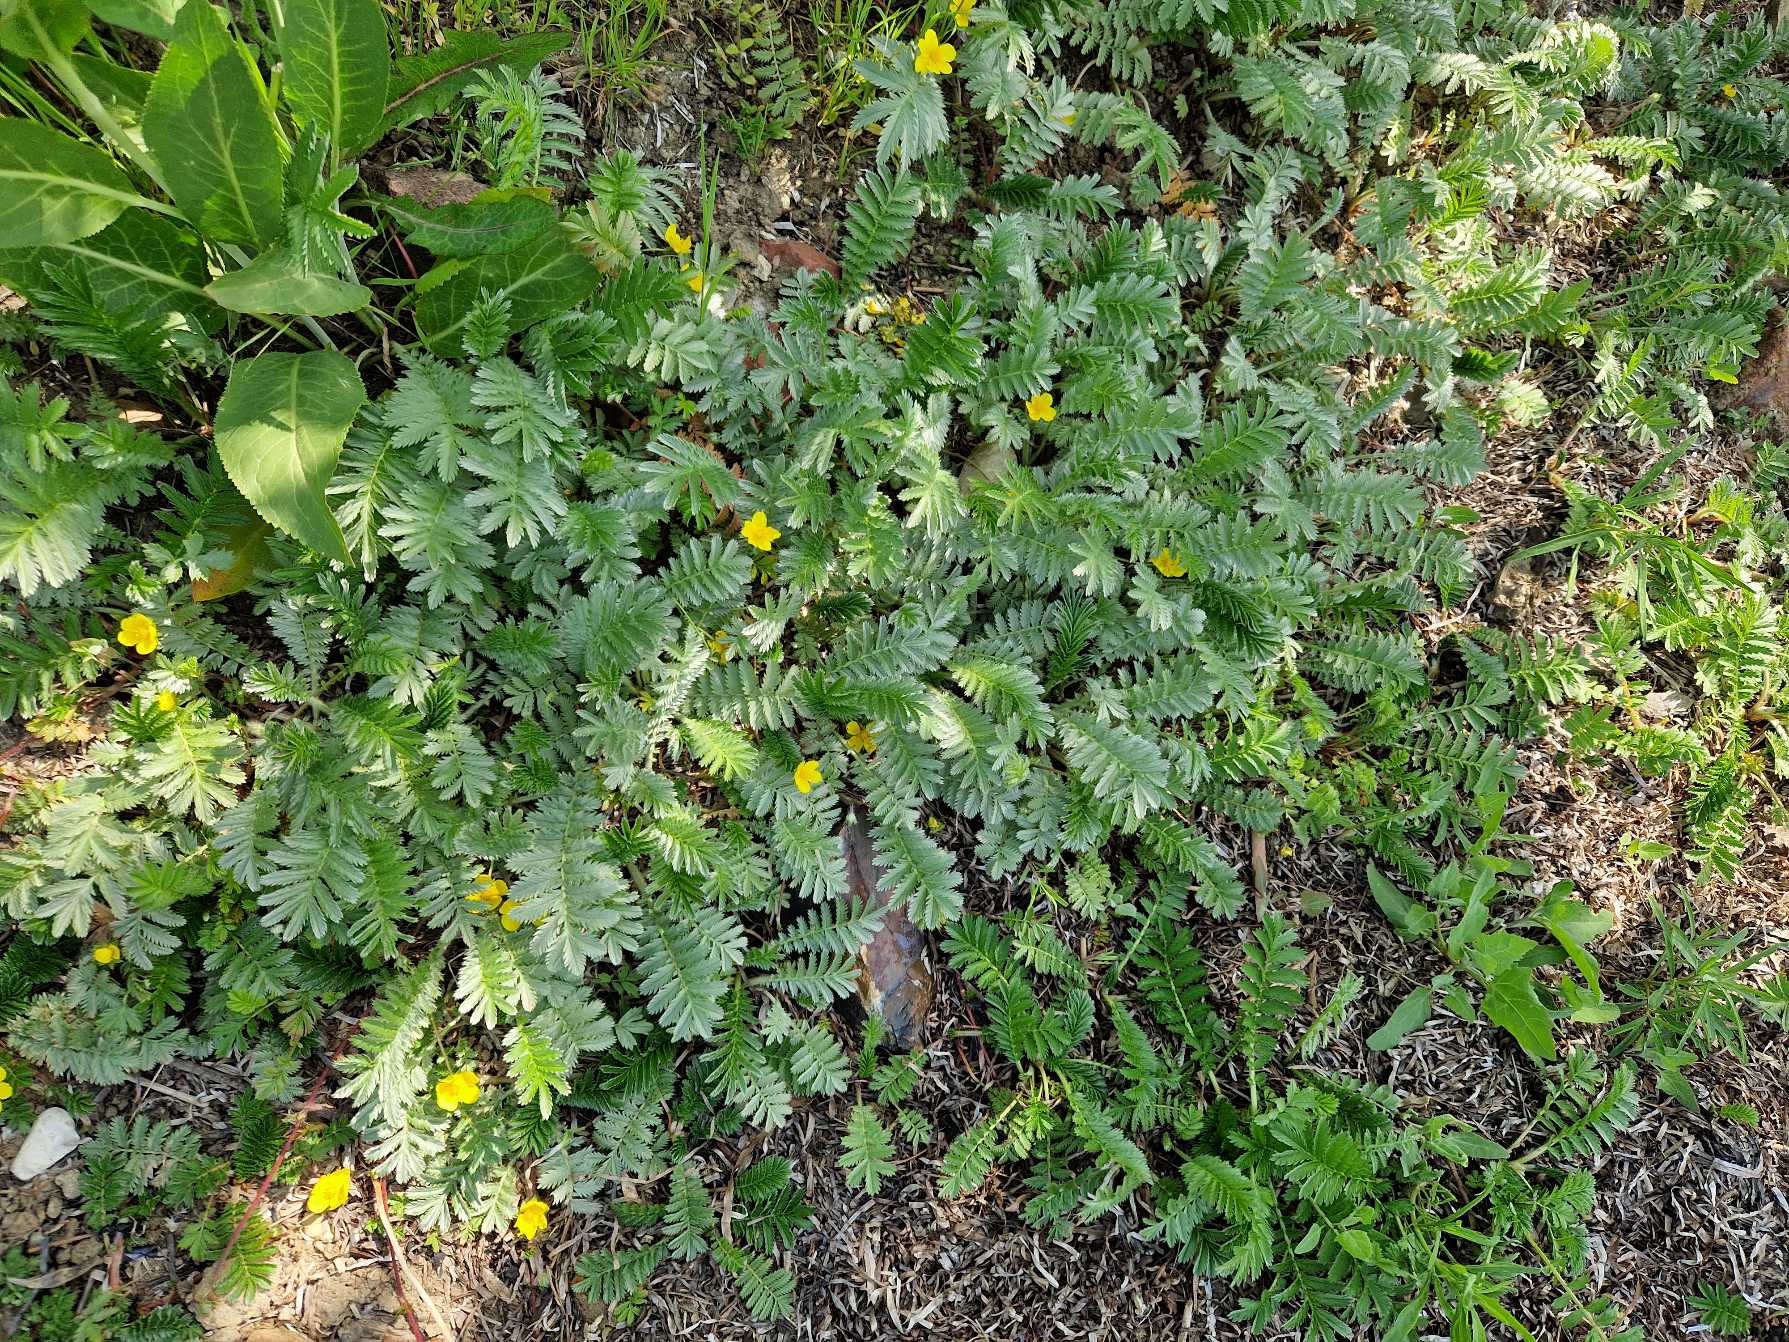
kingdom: Plantae
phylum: Tracheophyta
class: Magnoliopsida
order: Rosales
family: Rosaceae
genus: Argentina
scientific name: Argentina anserina
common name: Gåsepotentil
